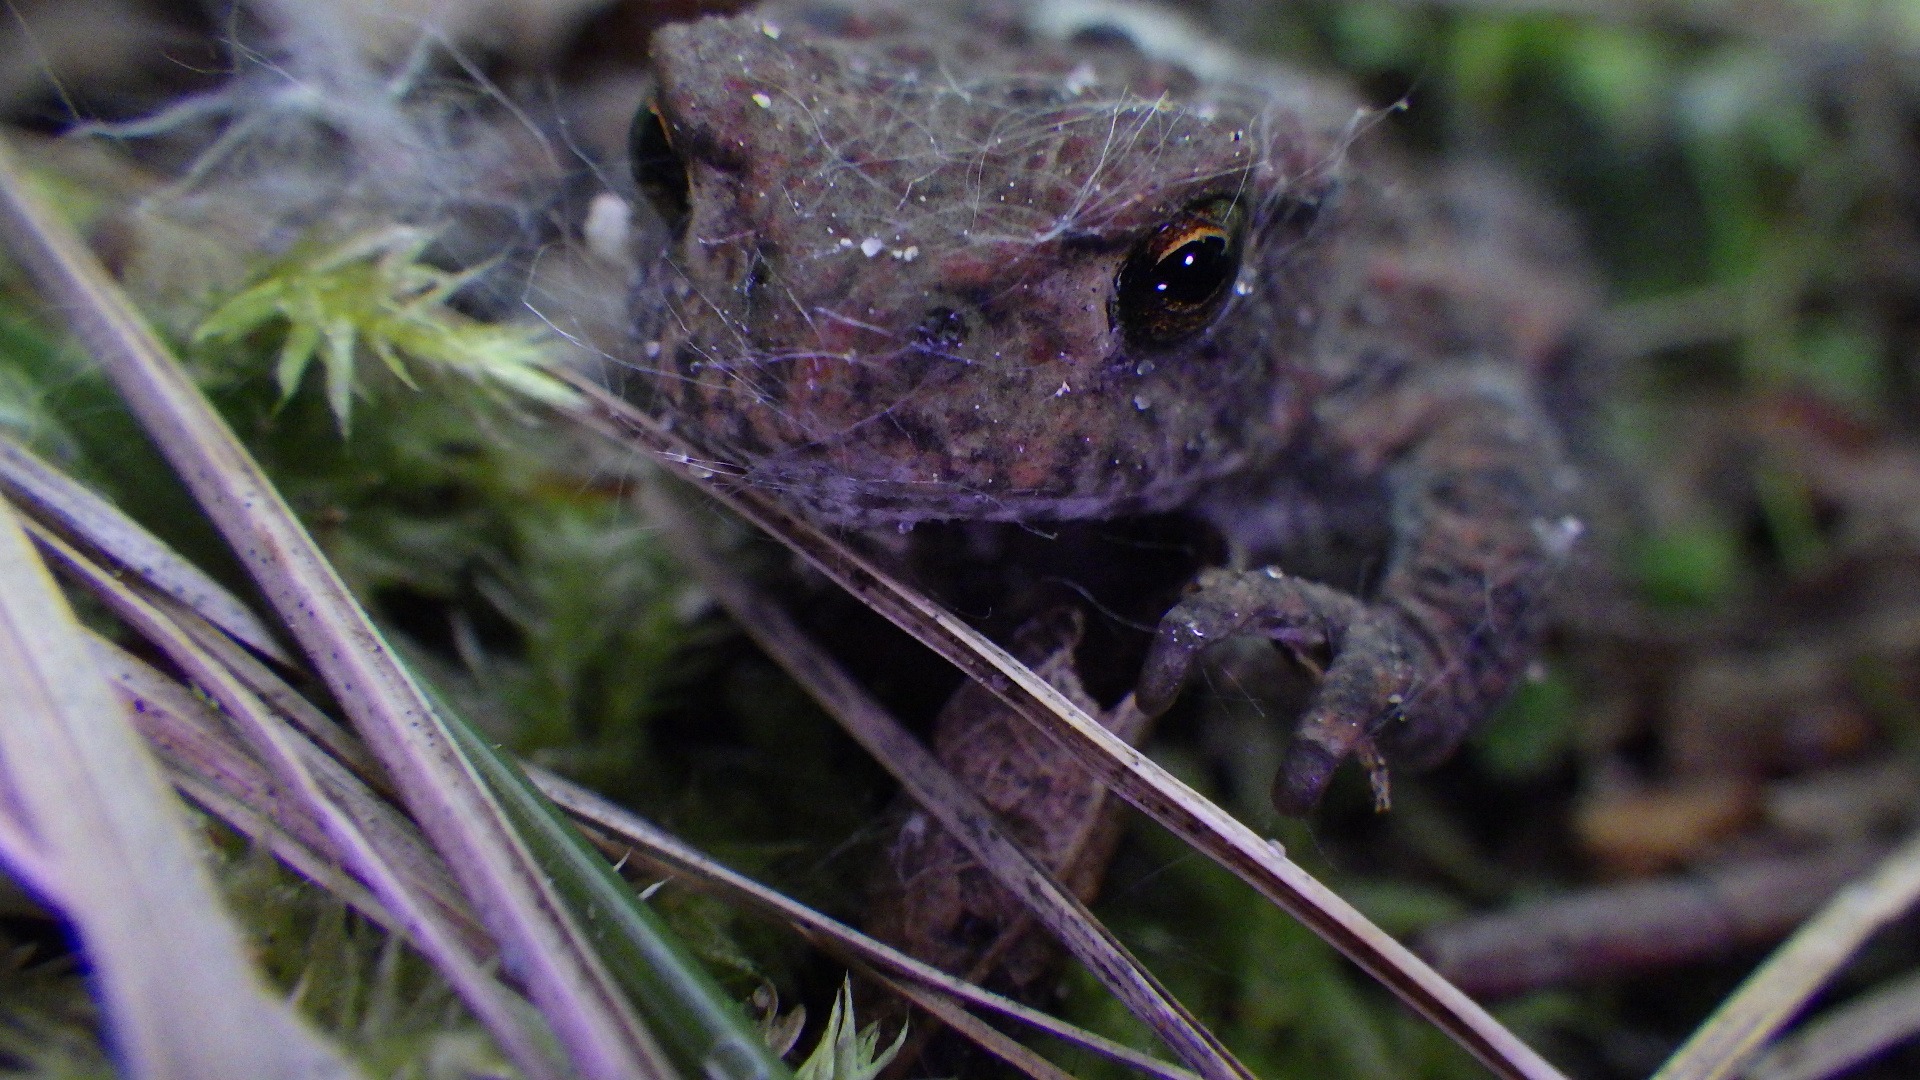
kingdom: Animalia
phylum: Chordata
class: Amphibia
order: Anura
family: Bufonidae
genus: Bufo
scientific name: Bufo bufo
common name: Skrubtudse
